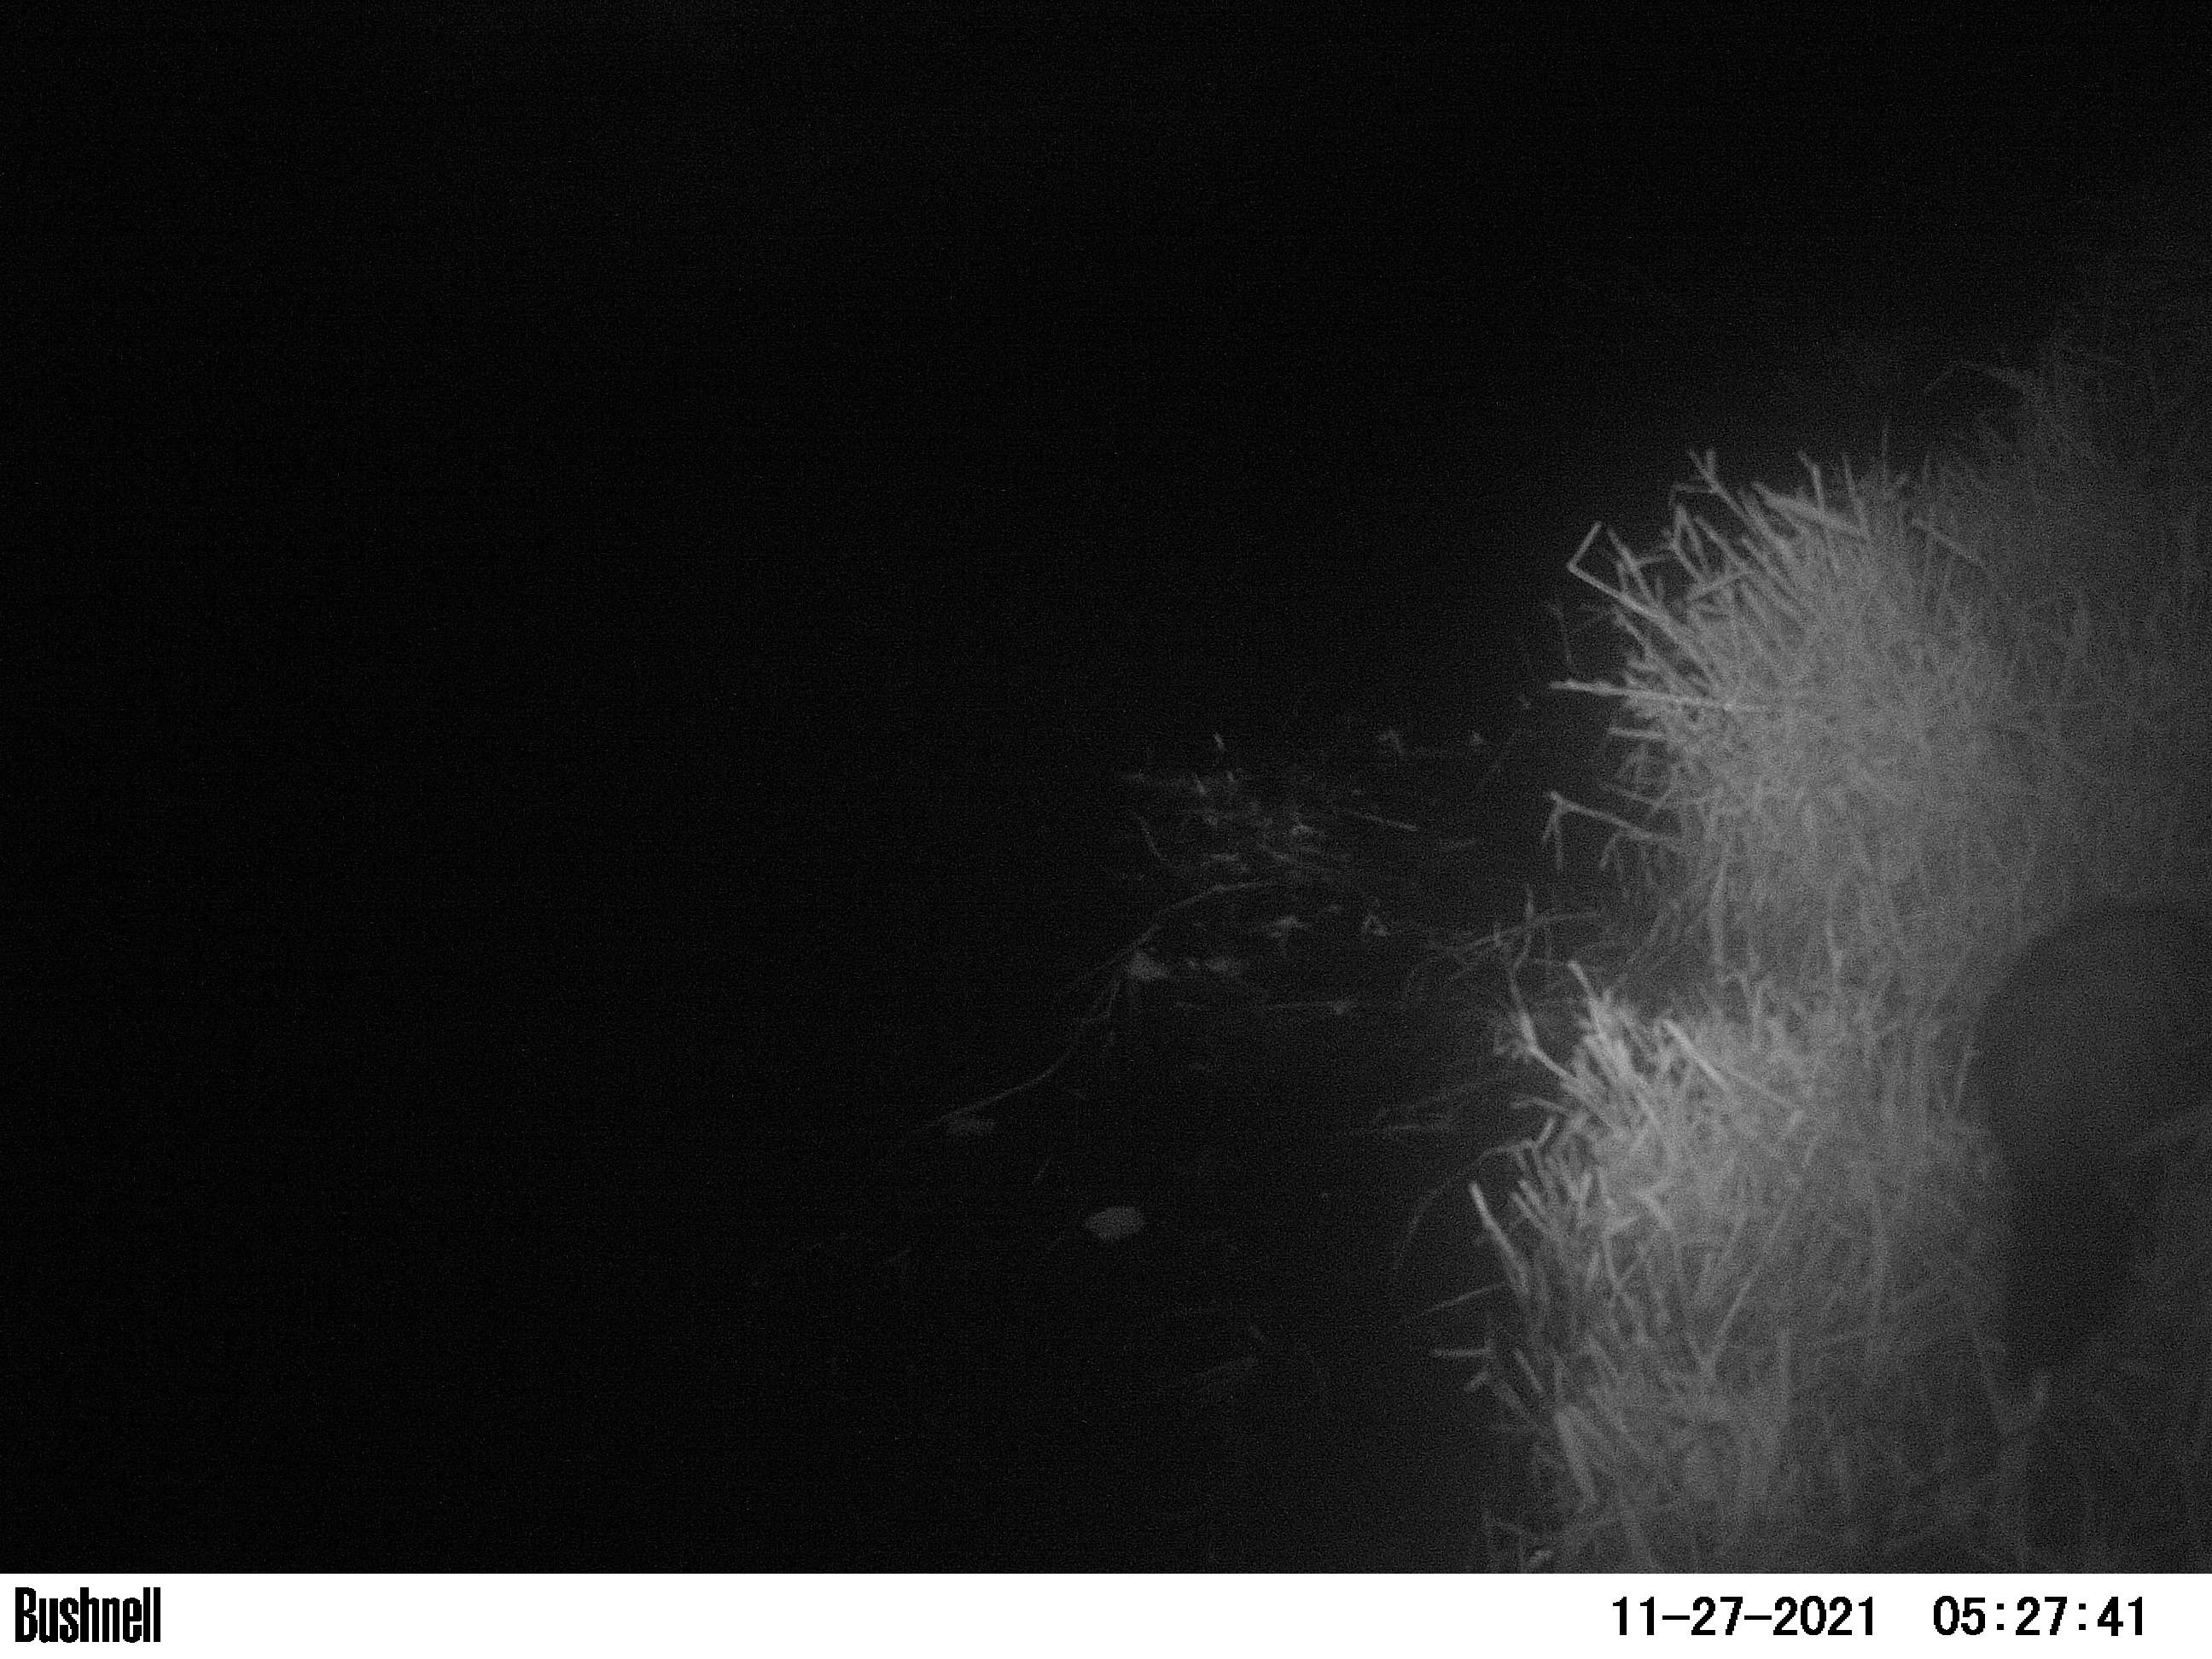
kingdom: Animalia
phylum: Chordata
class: Mammalia
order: Rodentia
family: Castoridae
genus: Castor
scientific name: Castor fiber
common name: Eurasian beaver
